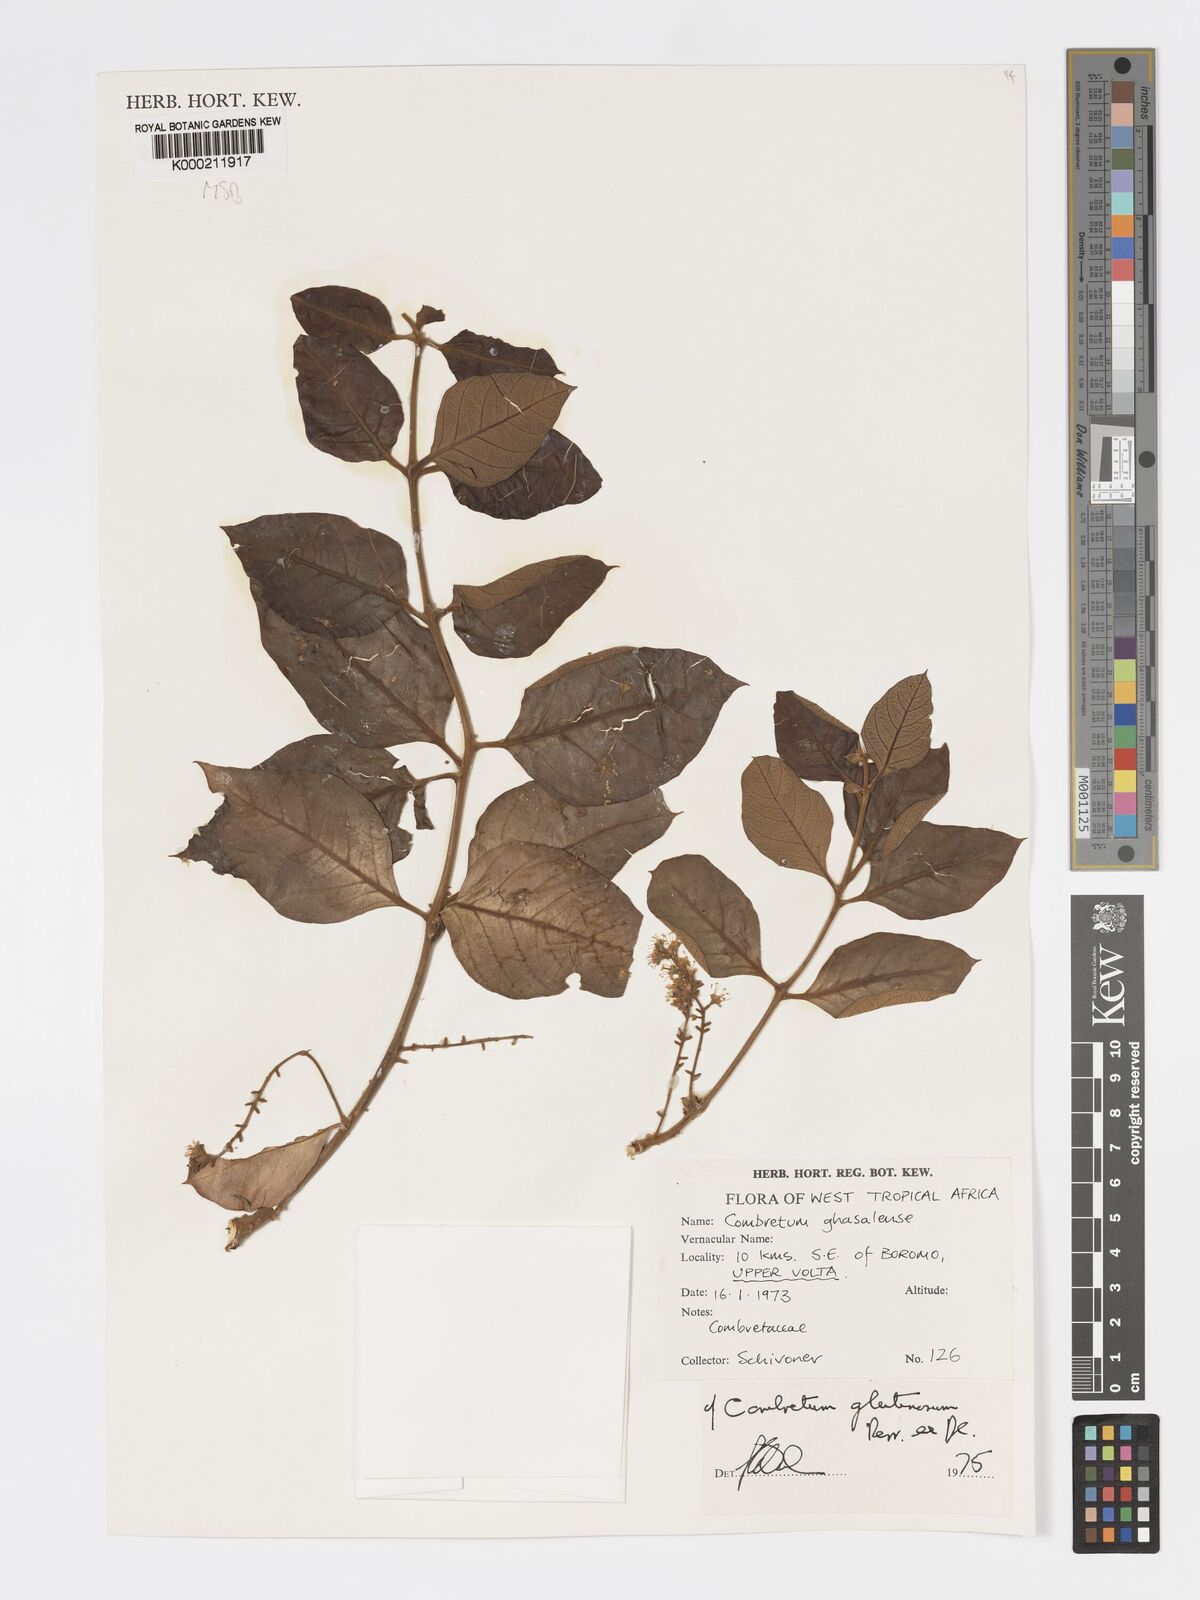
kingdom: Plantae
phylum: Tracheophyta
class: Magnoliopsida
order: Myrtales
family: Combretaceae
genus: Combretum
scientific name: Combretum glutinosum
